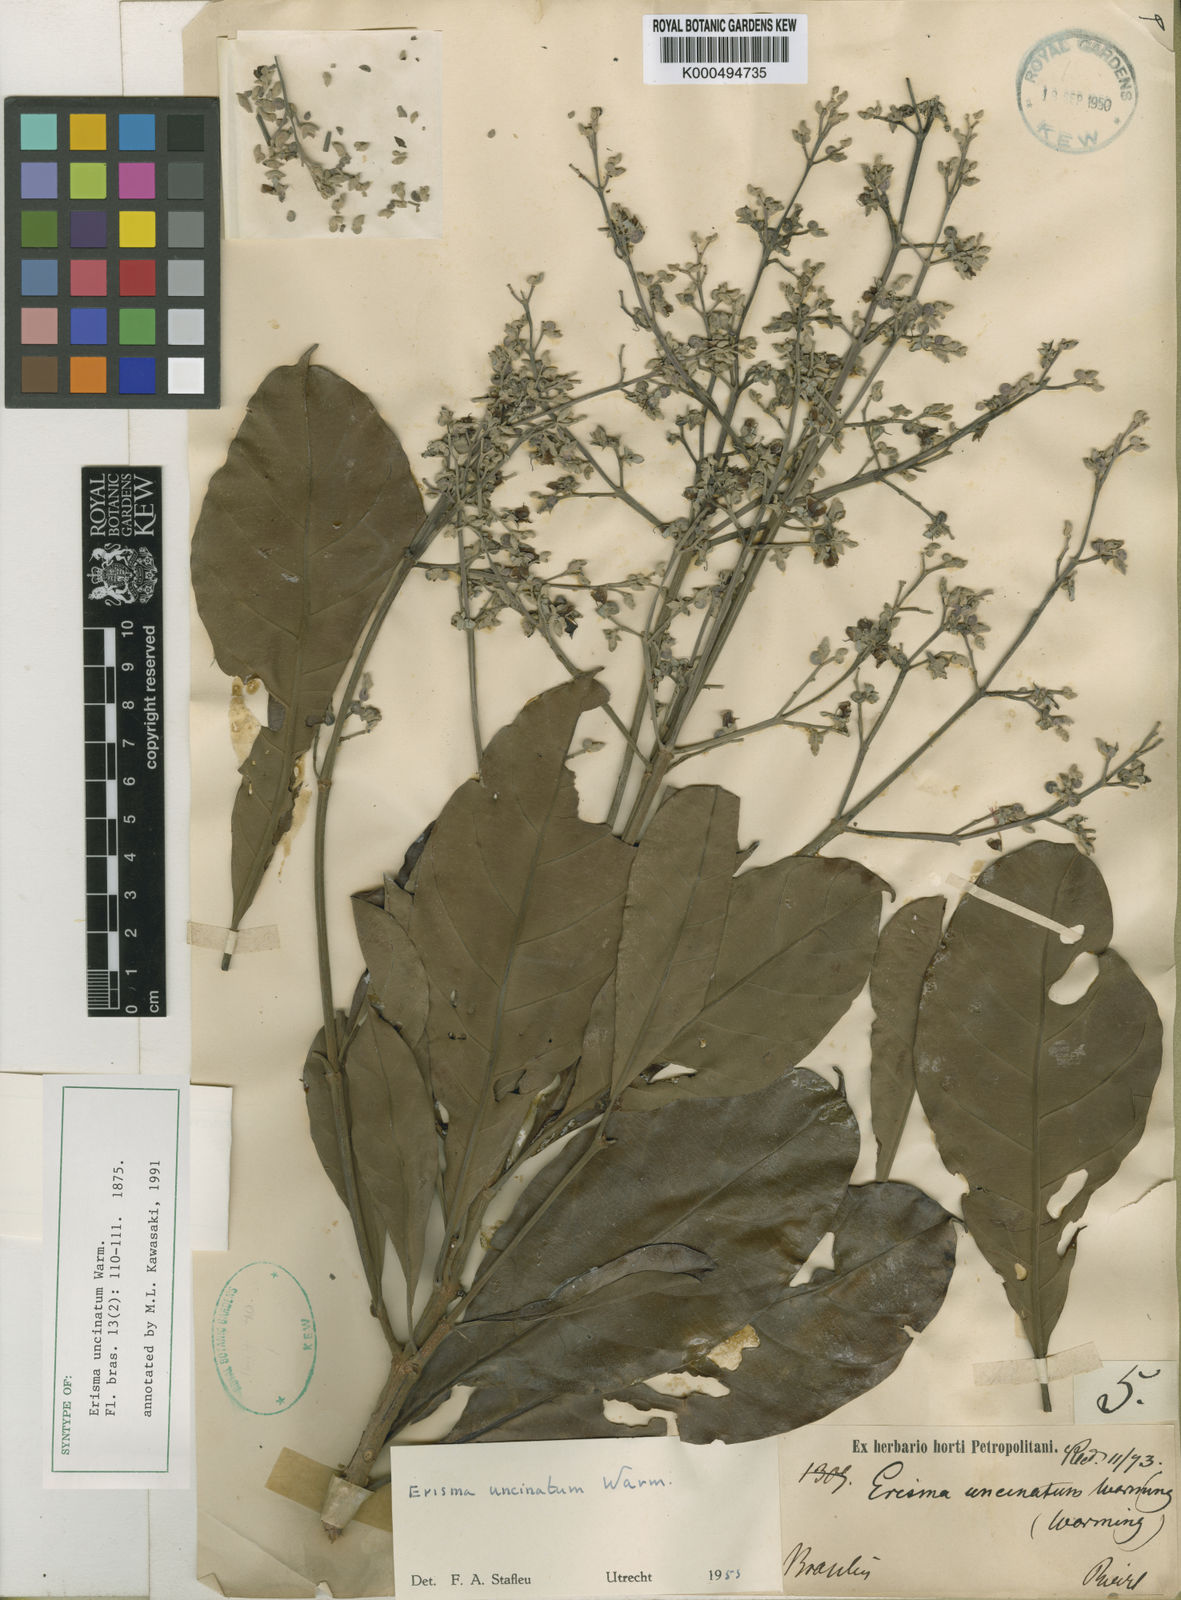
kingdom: Plantae
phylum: Tracheophyta
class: Magnoliopsida
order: Myrtales
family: Vochysiaceae
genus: Erisma
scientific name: Erisma uncinatum
